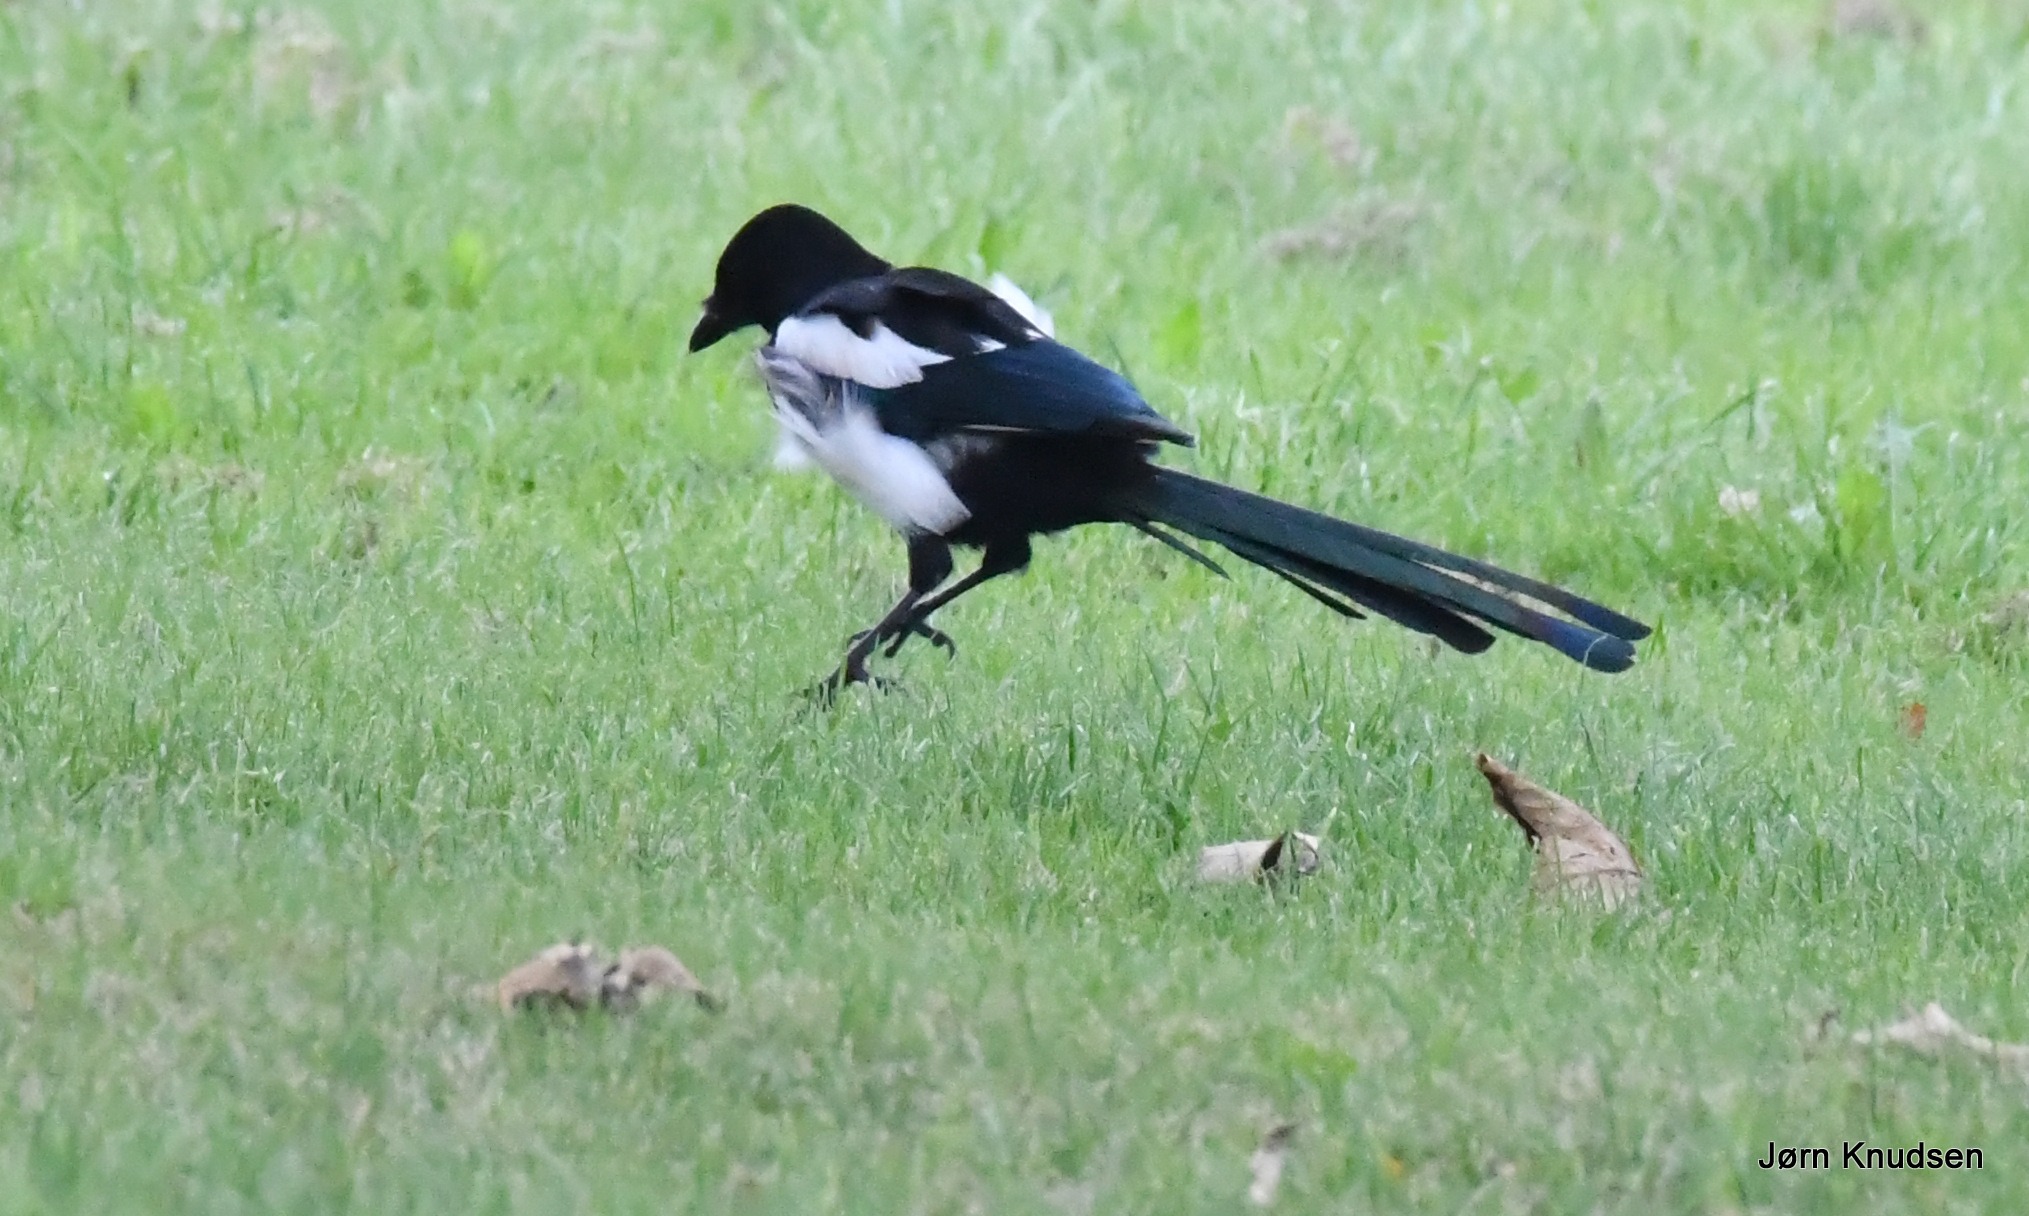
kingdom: Animalia
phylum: Chordata
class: Aves
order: Passeriformes
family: Corvidae
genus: Pica
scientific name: Pica pica
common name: Husskade
